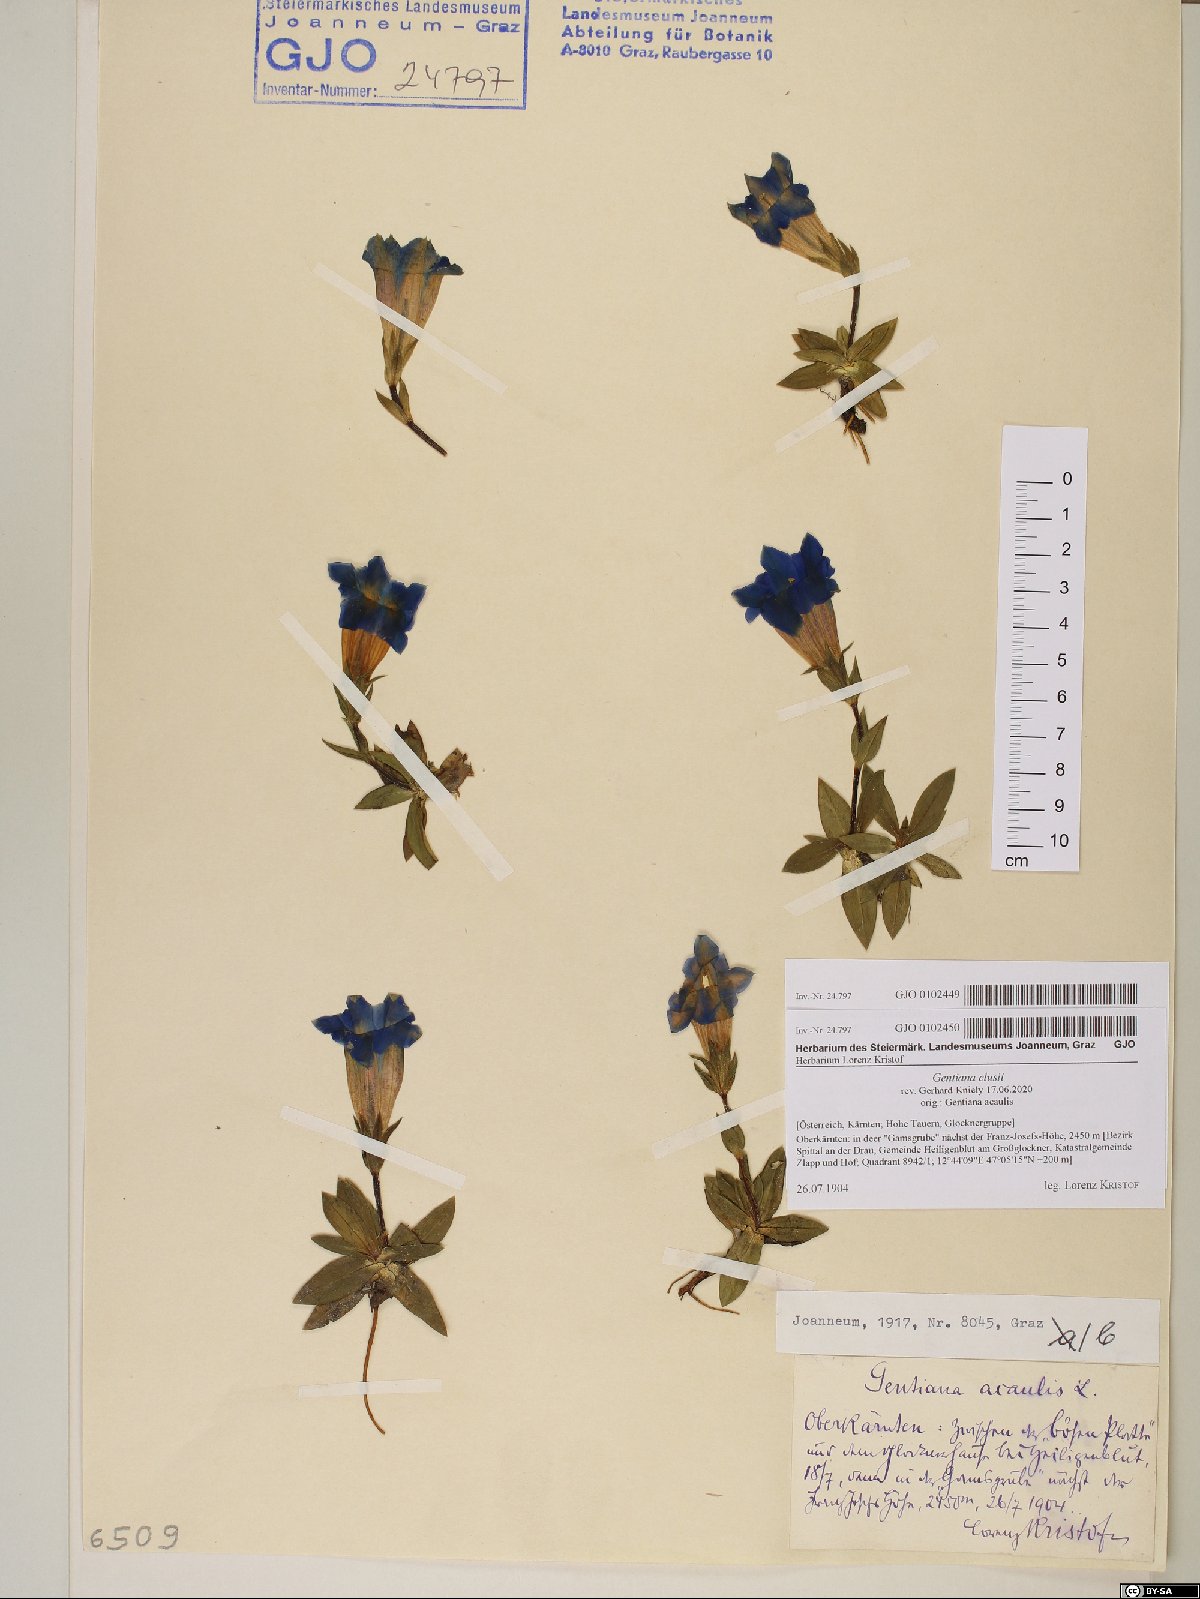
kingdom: Plantae
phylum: Tracheophyta
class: Magnoliopsida
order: Gentianales
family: Gentianaceae
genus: Gentiana
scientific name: Gentiana clusii
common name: Trumpet gentian
